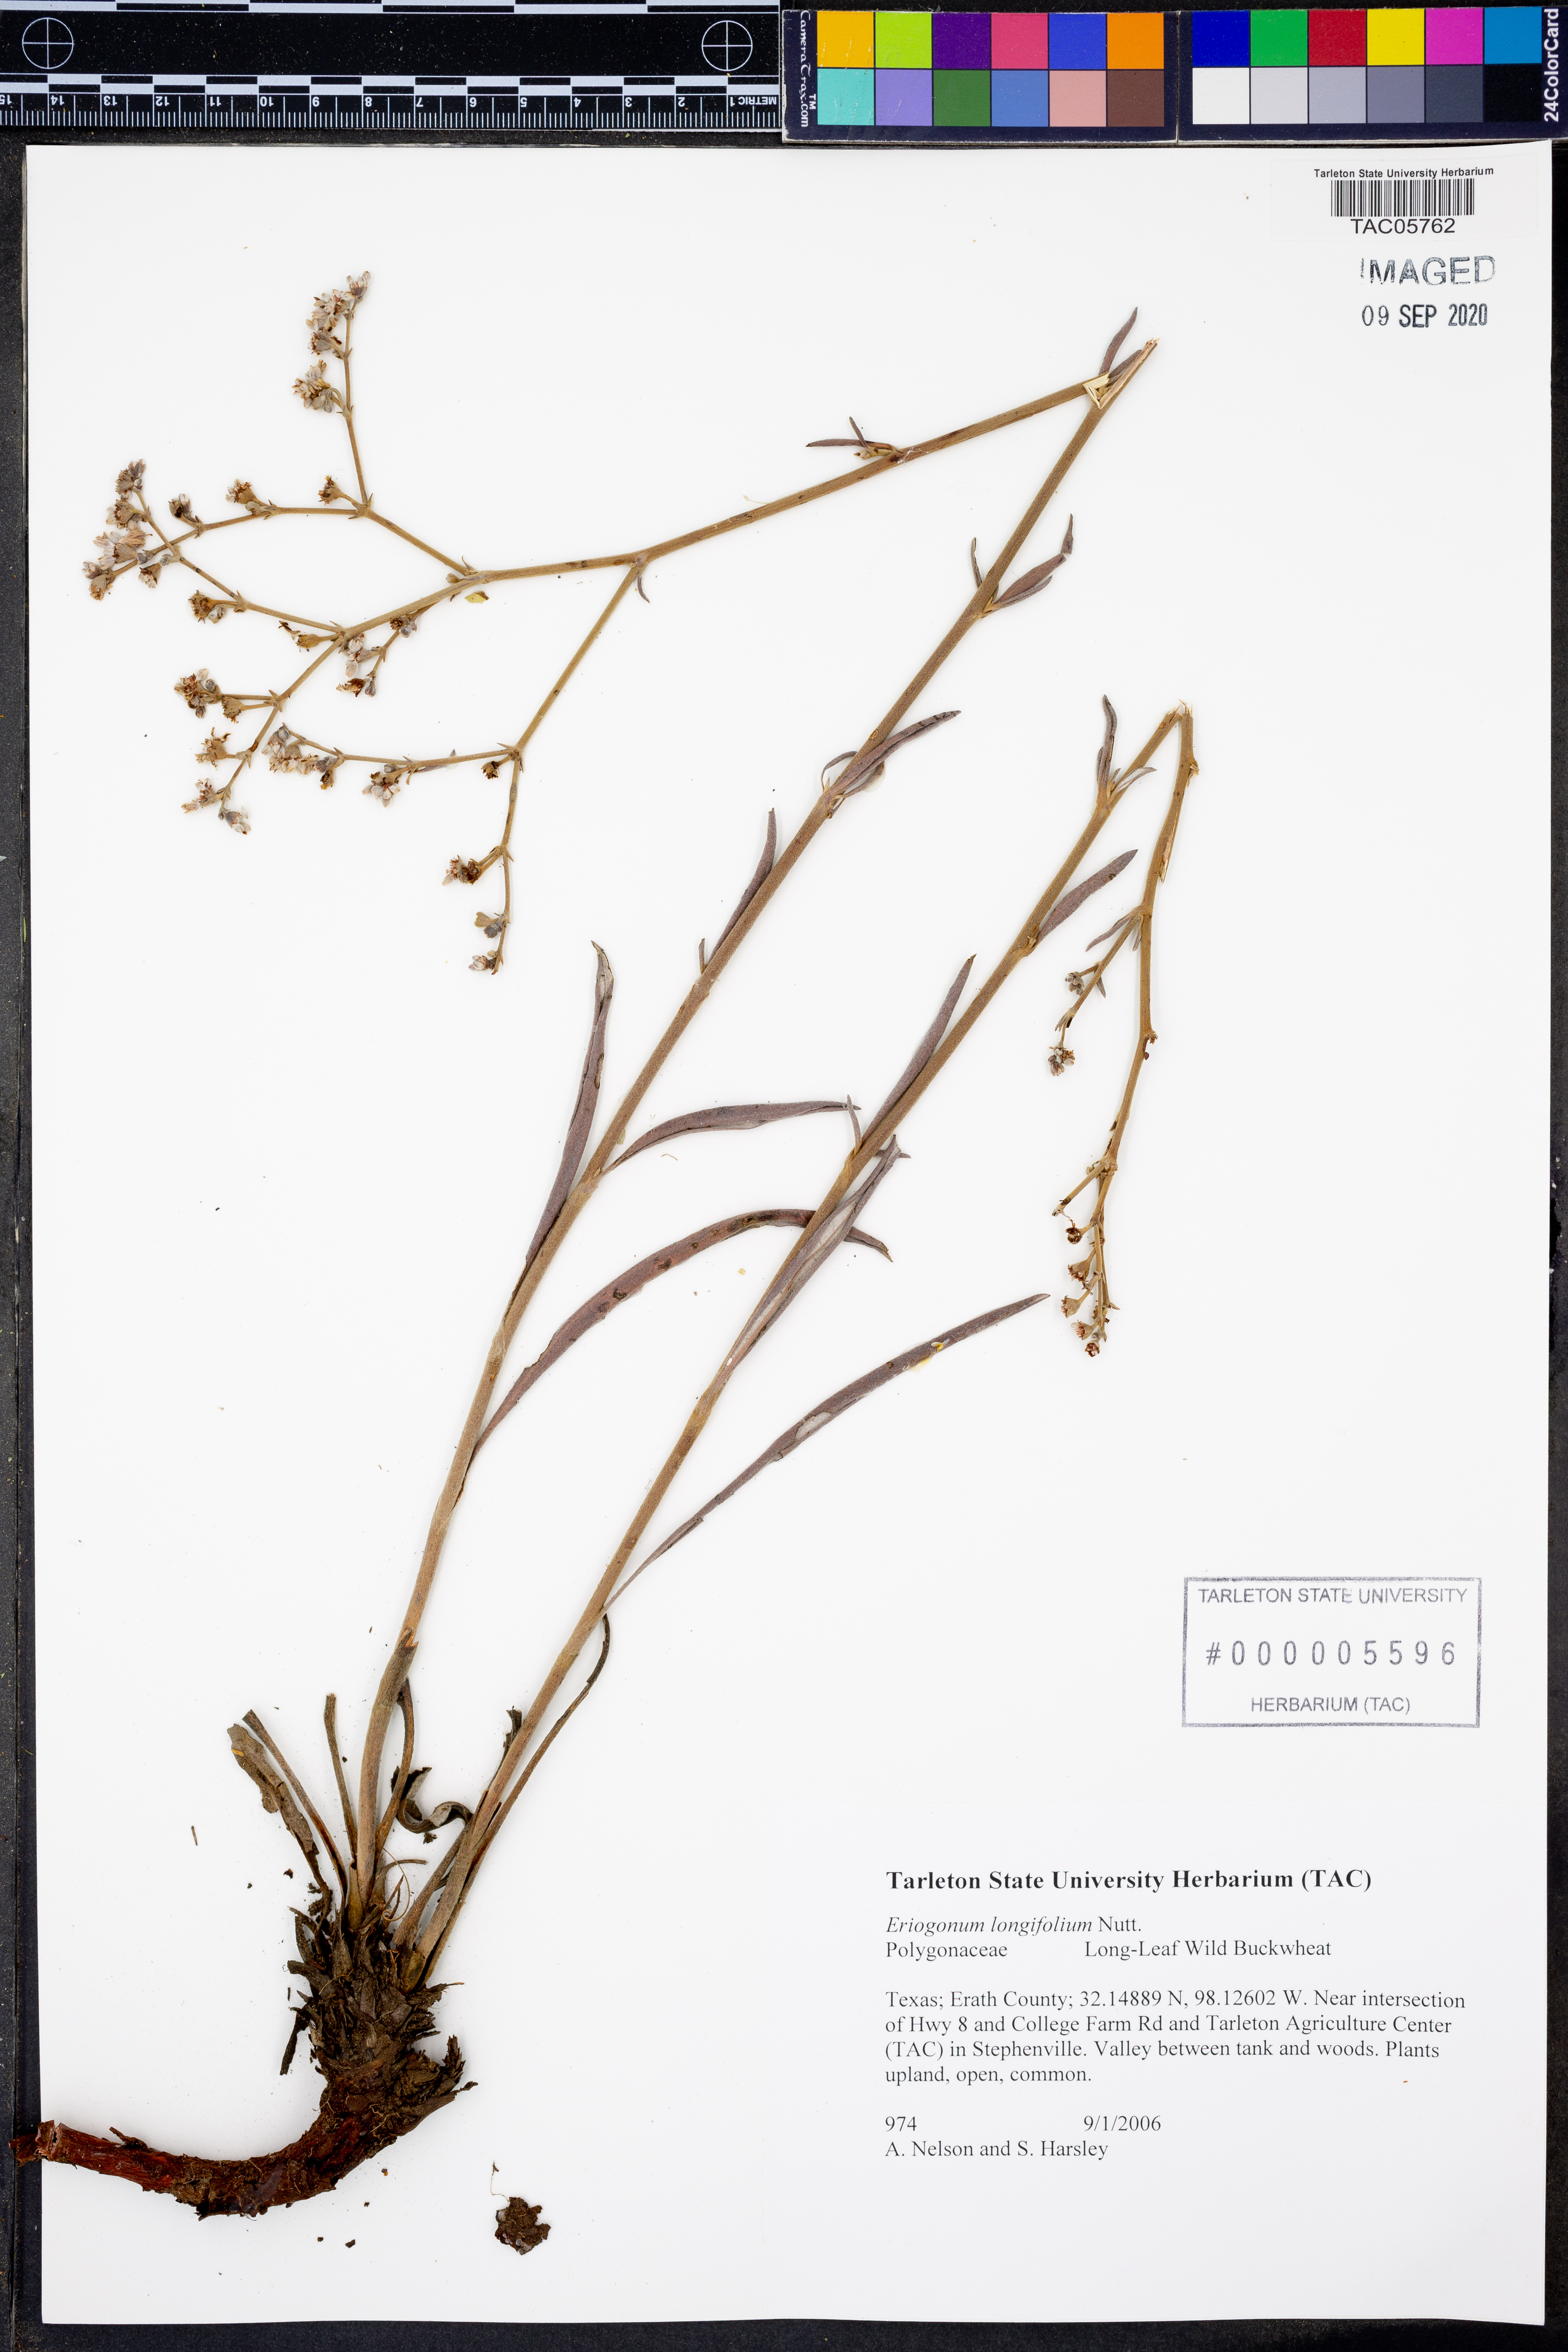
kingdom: Plantae
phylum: Tracheophyta
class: Magnoliopsida
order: Caryophyllales
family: Polygonaceae
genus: Eriogonum
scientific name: Eriogonum longifolium
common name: Longleaf wild buckwheat
